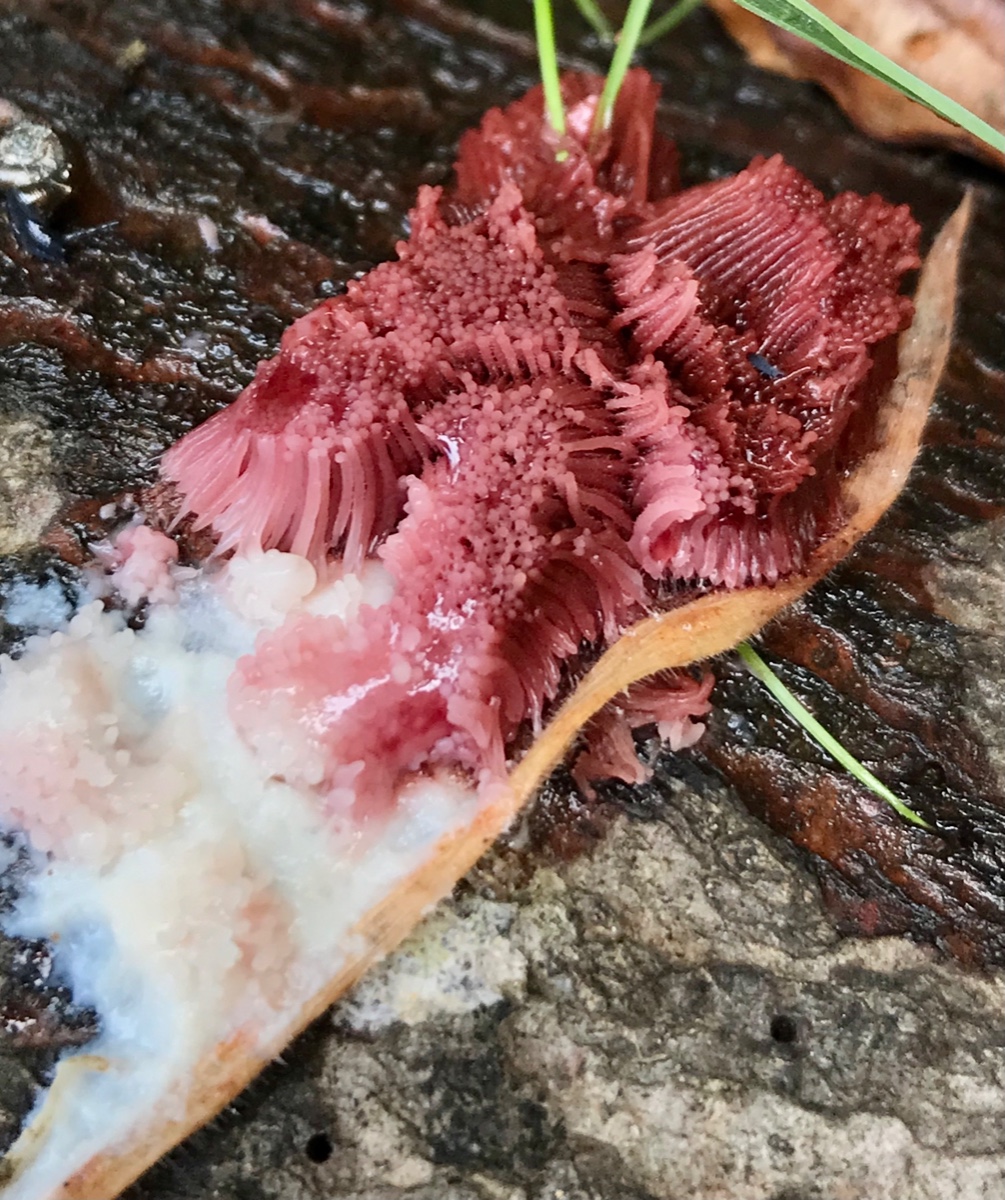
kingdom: Protozoa
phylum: Mycetozoa
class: Myxomycetes
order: Stemonitidales
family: Stemonitidaceae
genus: Stemonitis
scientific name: Stemonitis
